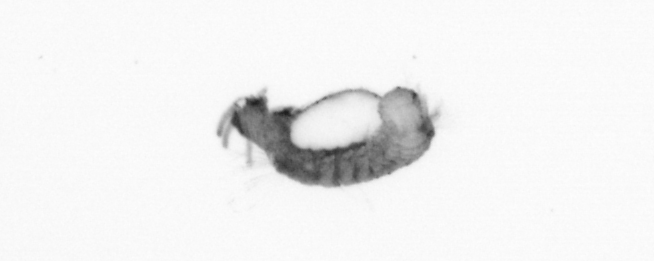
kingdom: Animalia
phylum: Annelida
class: Polychaeta
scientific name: Polychaeta
